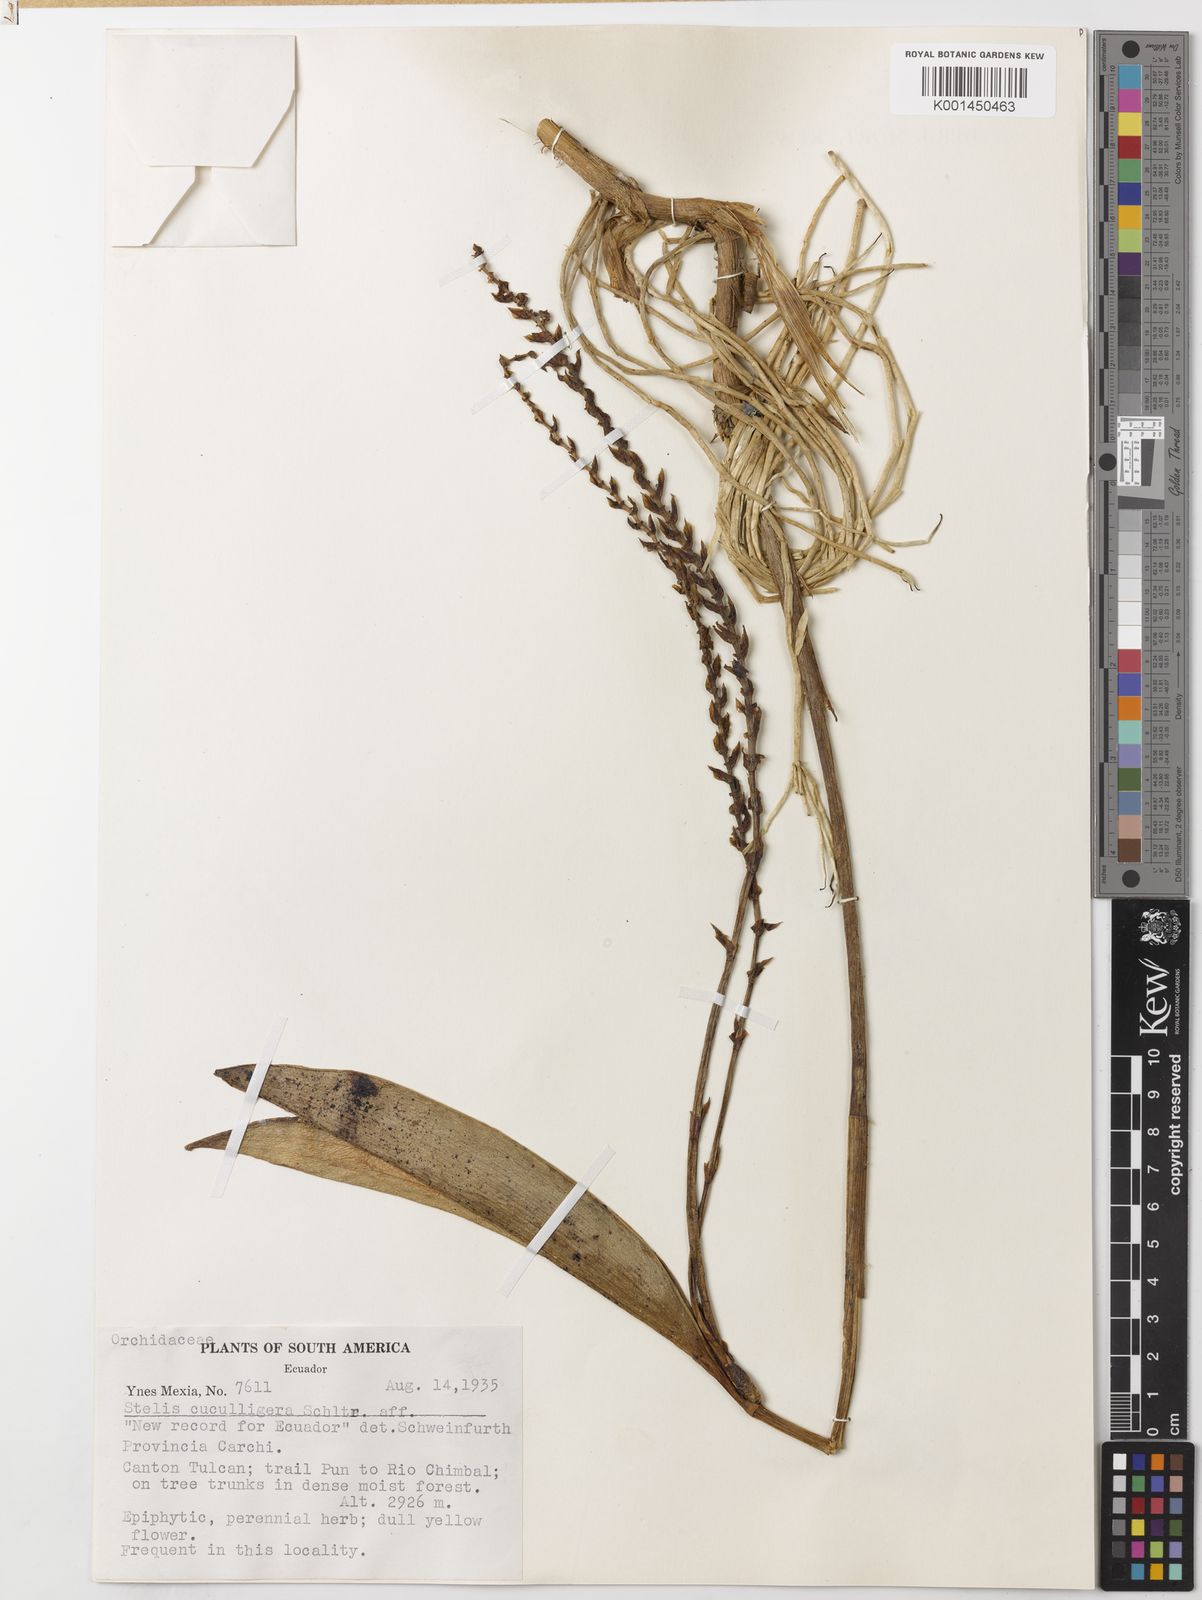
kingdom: Plantae
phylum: Tracheophyta
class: Liliopsida
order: Asparagales
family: Orchidaceae
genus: Stelis
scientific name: Stelis cuculligera
